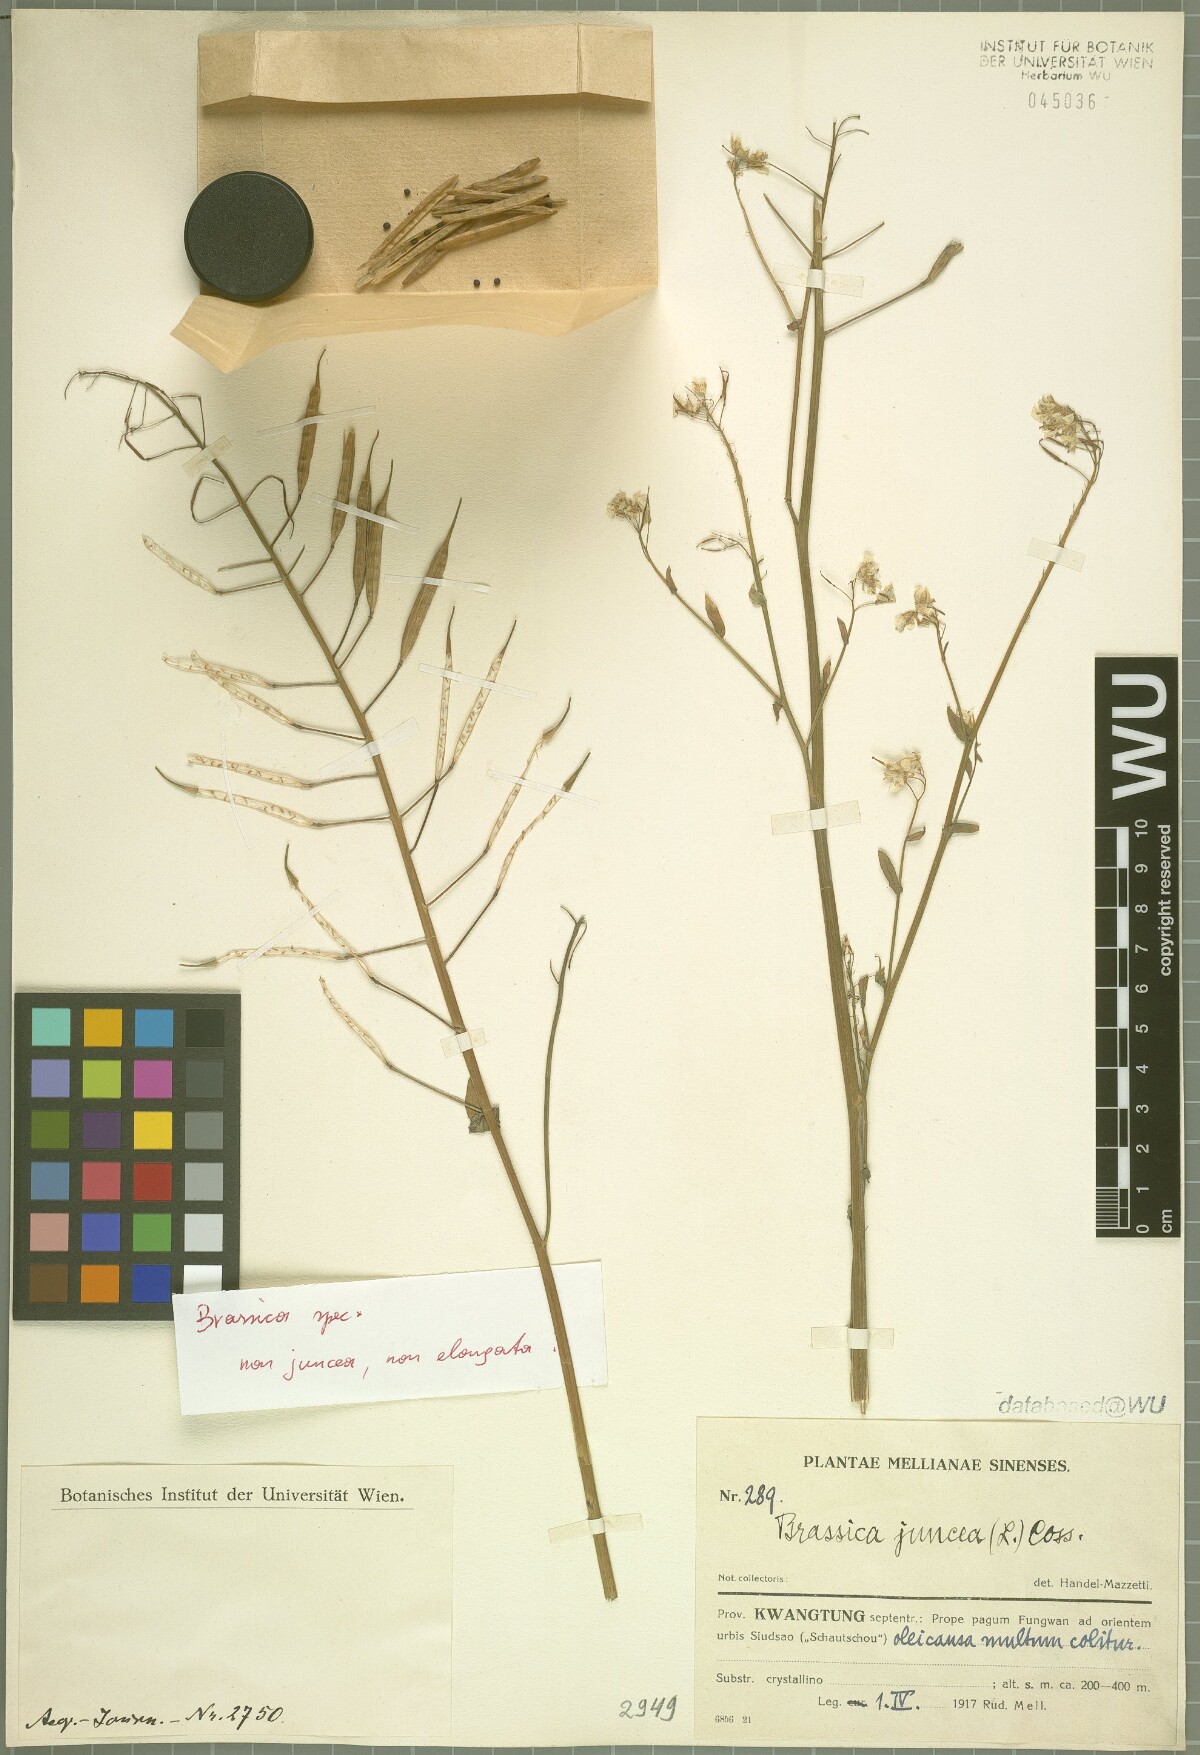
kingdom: Plantae
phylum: Tracheophyta
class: Magnoliopsida
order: Brassicales
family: Brassicaceae
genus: Brassica
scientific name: Brassica
